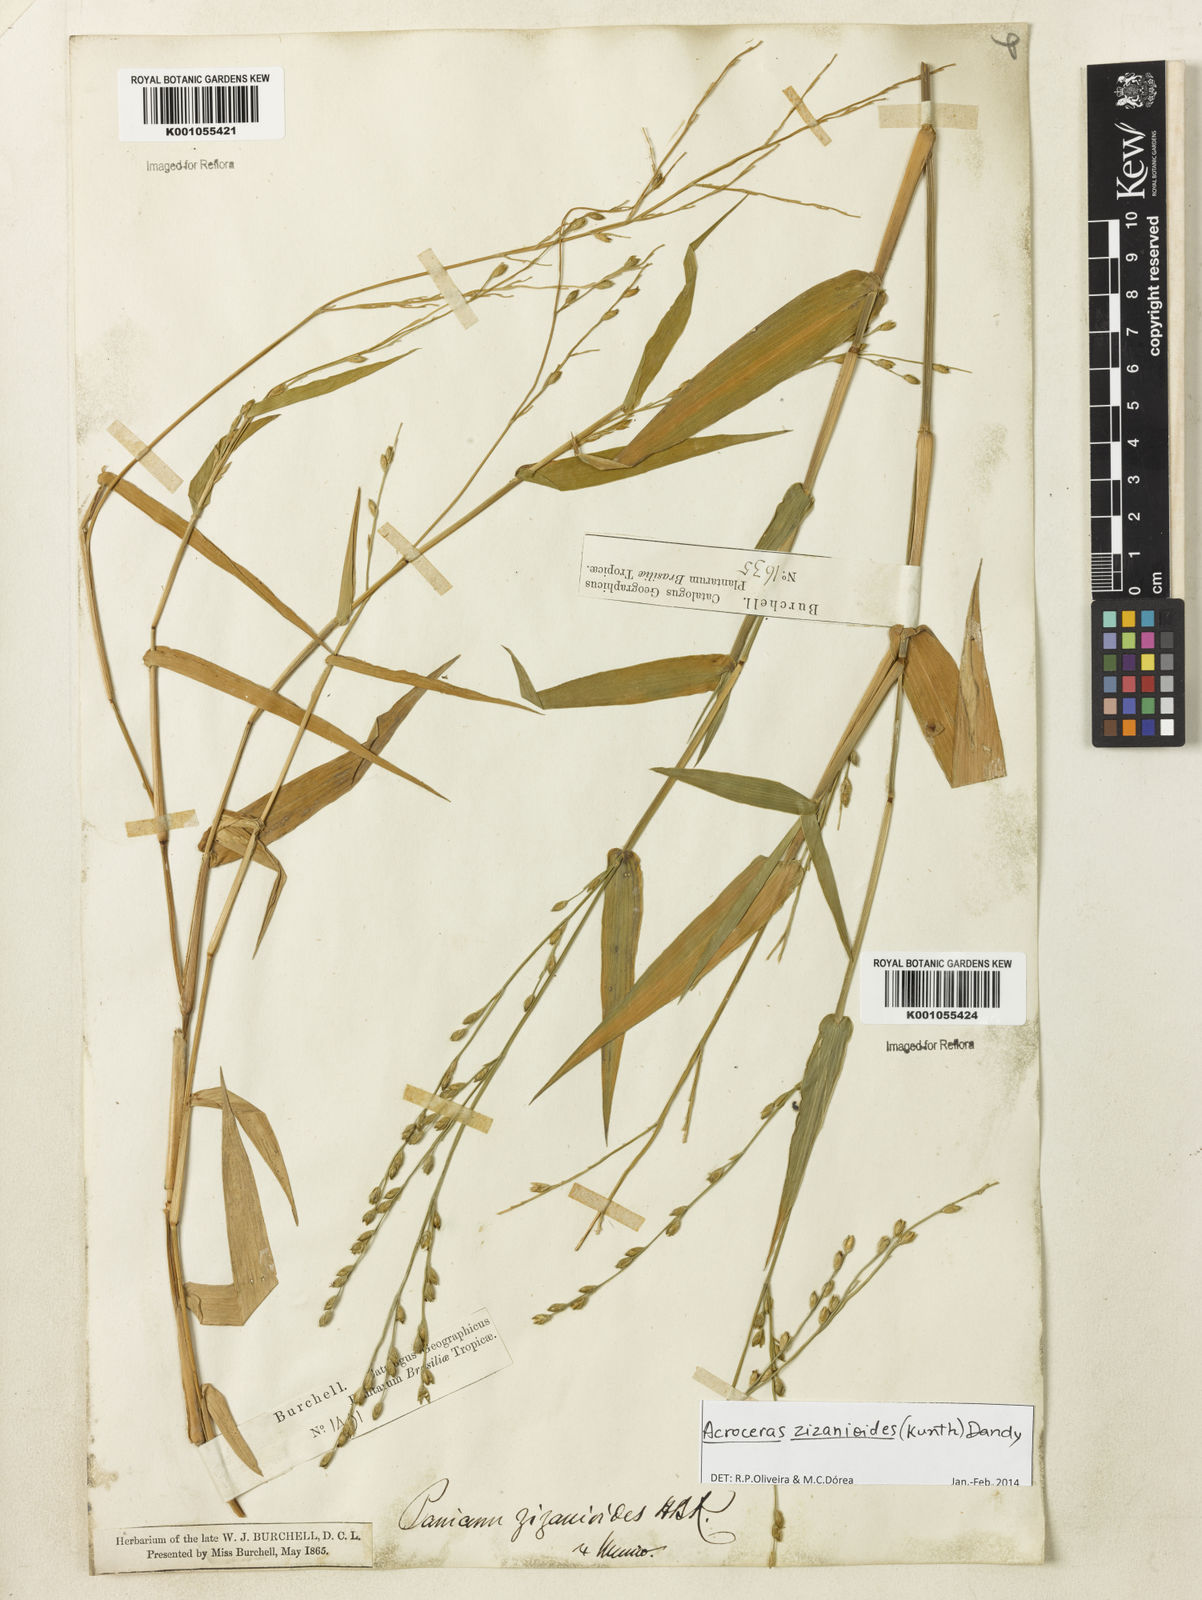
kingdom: Plantae
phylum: Tracheophyta
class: Liliopsida
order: Poales
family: Poaceae
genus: Acroceras
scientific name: Acroceras zizanioides
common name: Oat grass
